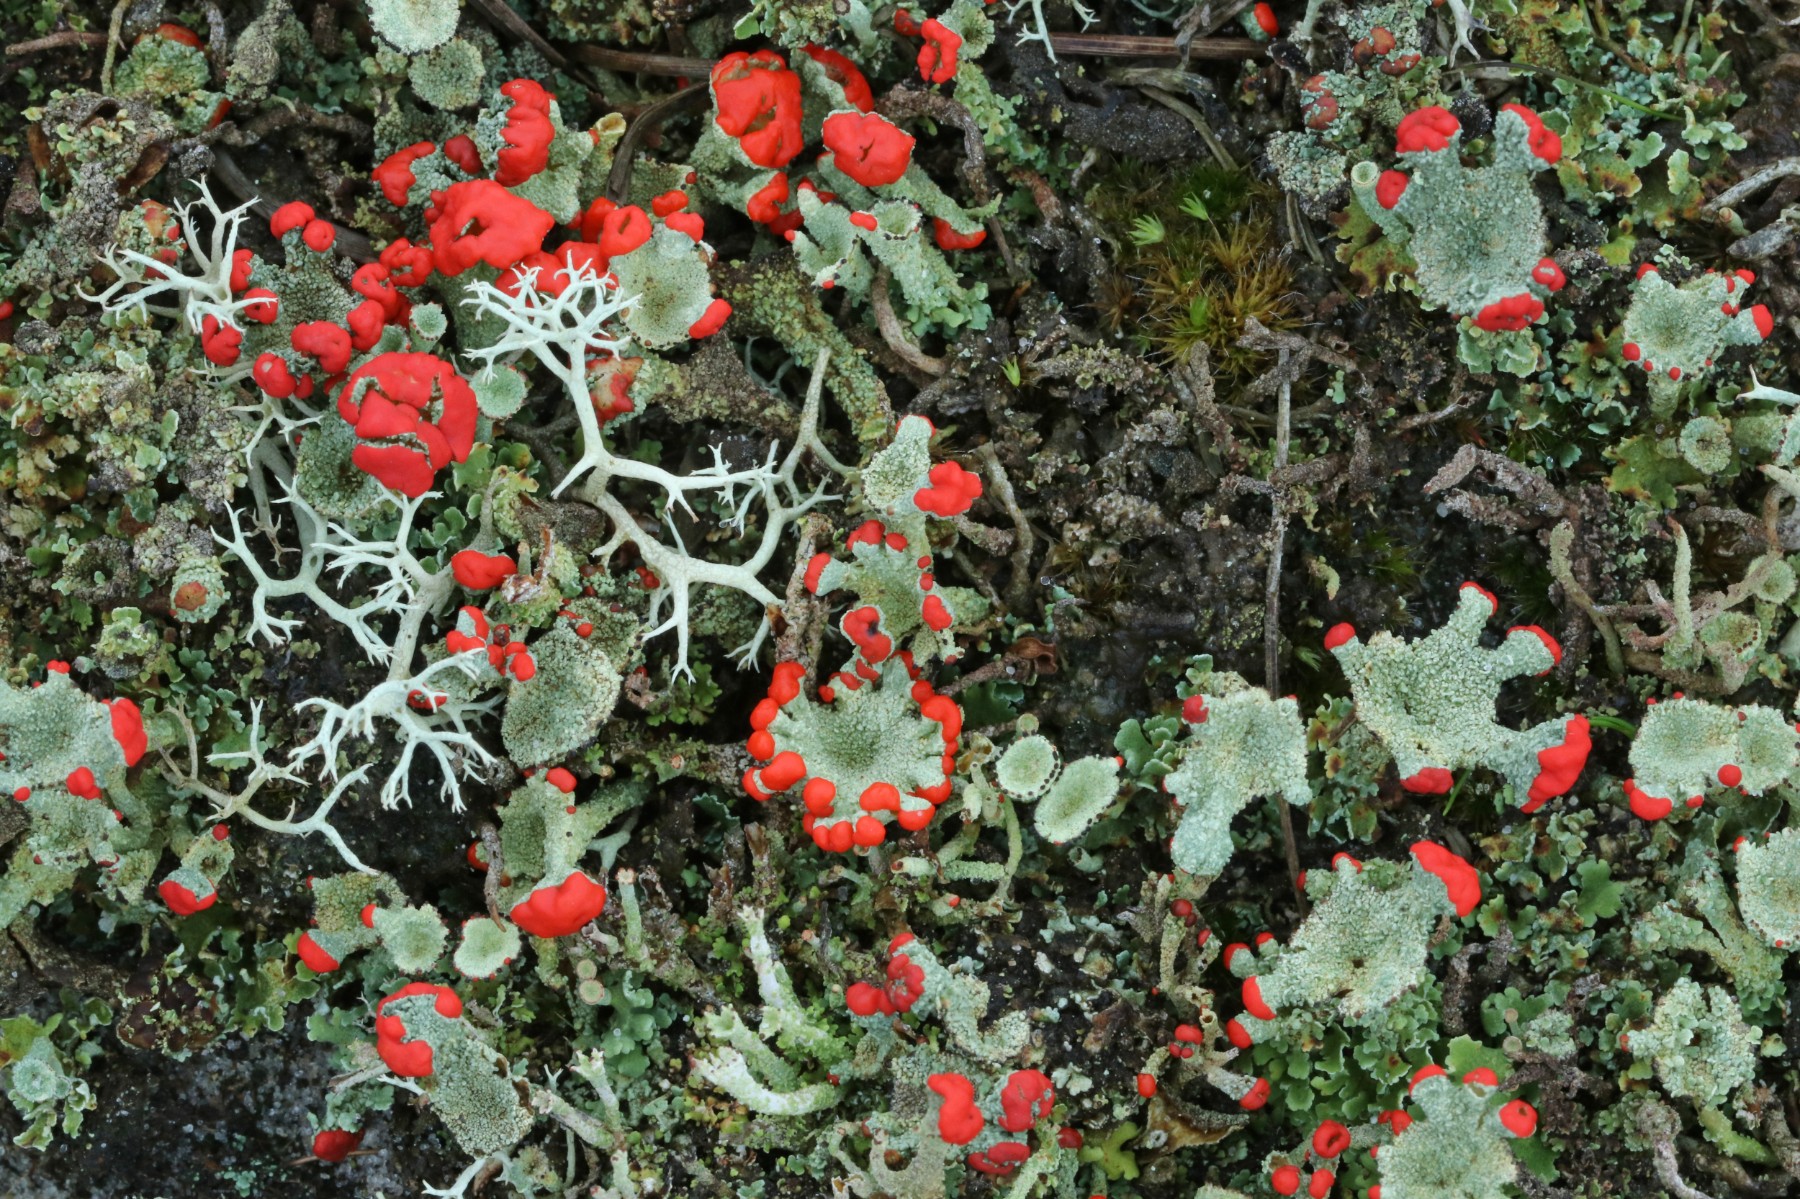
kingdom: Fungi
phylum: Ascomycota
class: Lecanoromycetes
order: Lecanorales
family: Cladoniaceae
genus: Cladonia
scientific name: Cladonia diversa
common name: rød bægerlav
